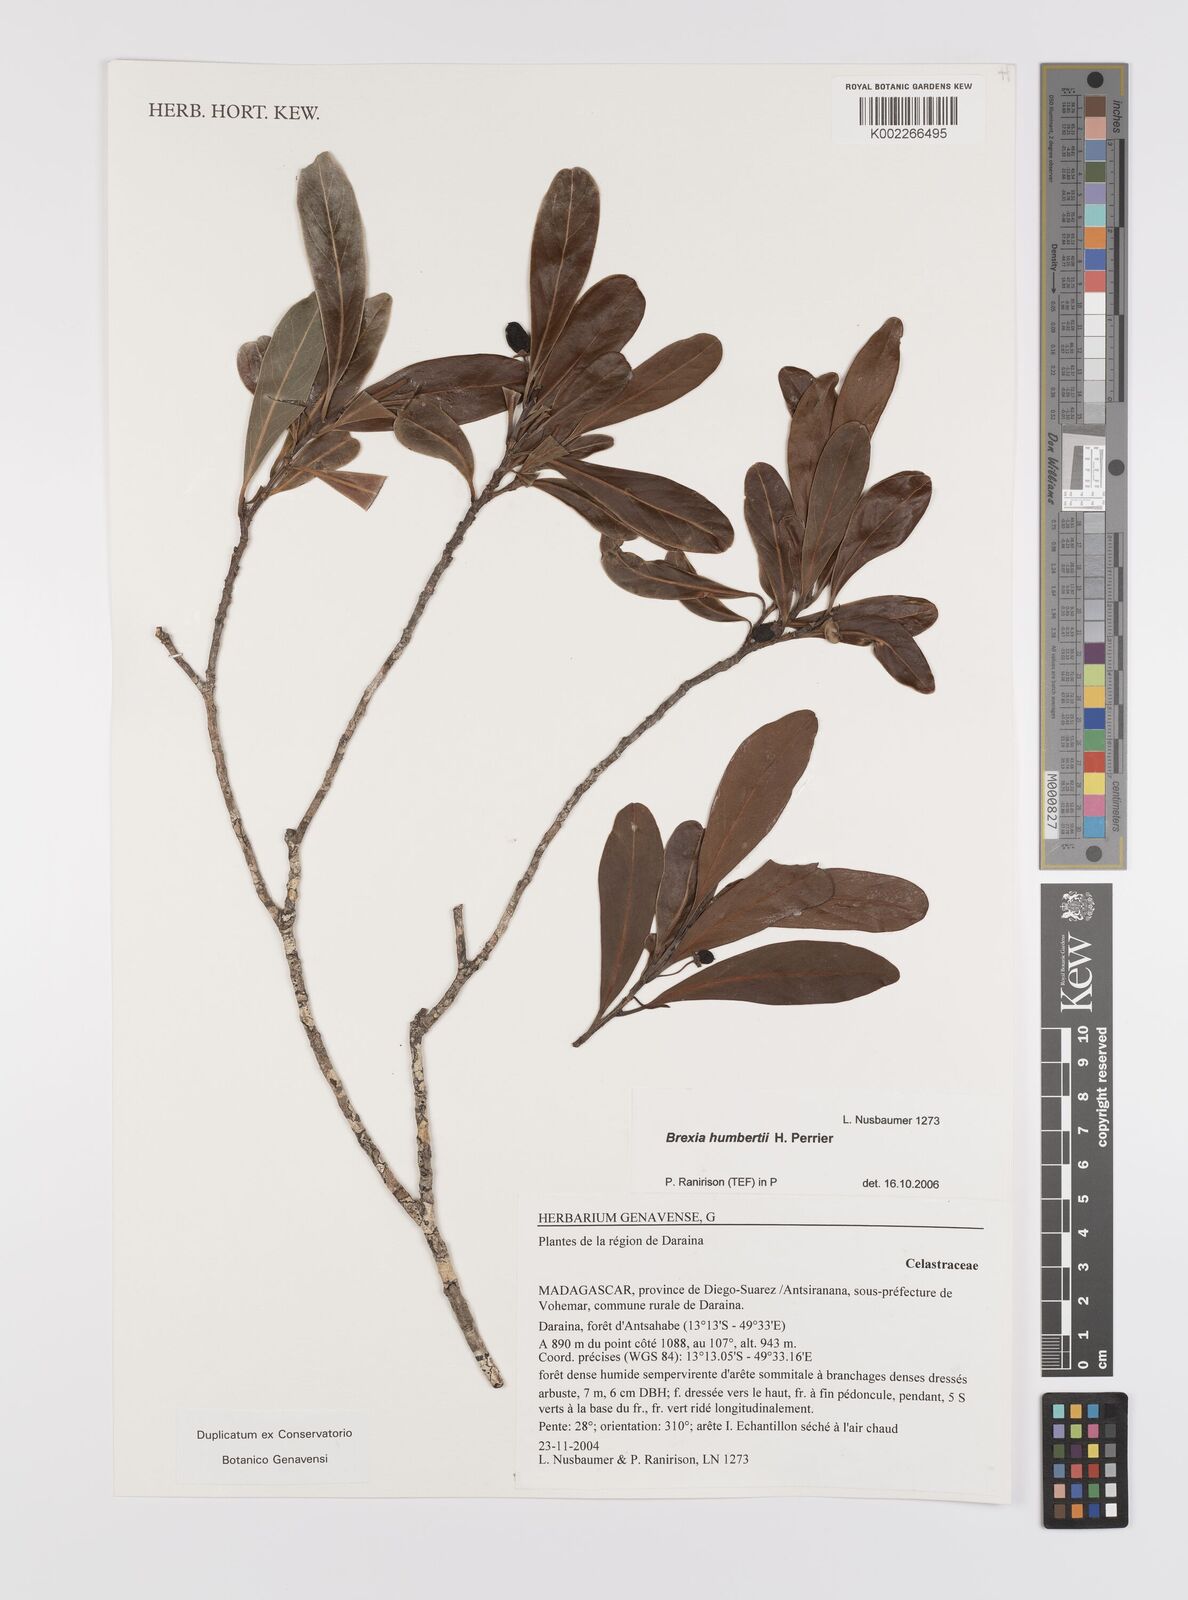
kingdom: Plantae
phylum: Tracheophyta
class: Magnoliopsida
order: Celastrales
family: Celastraceae
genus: Brexia
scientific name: Brexia humbertii
